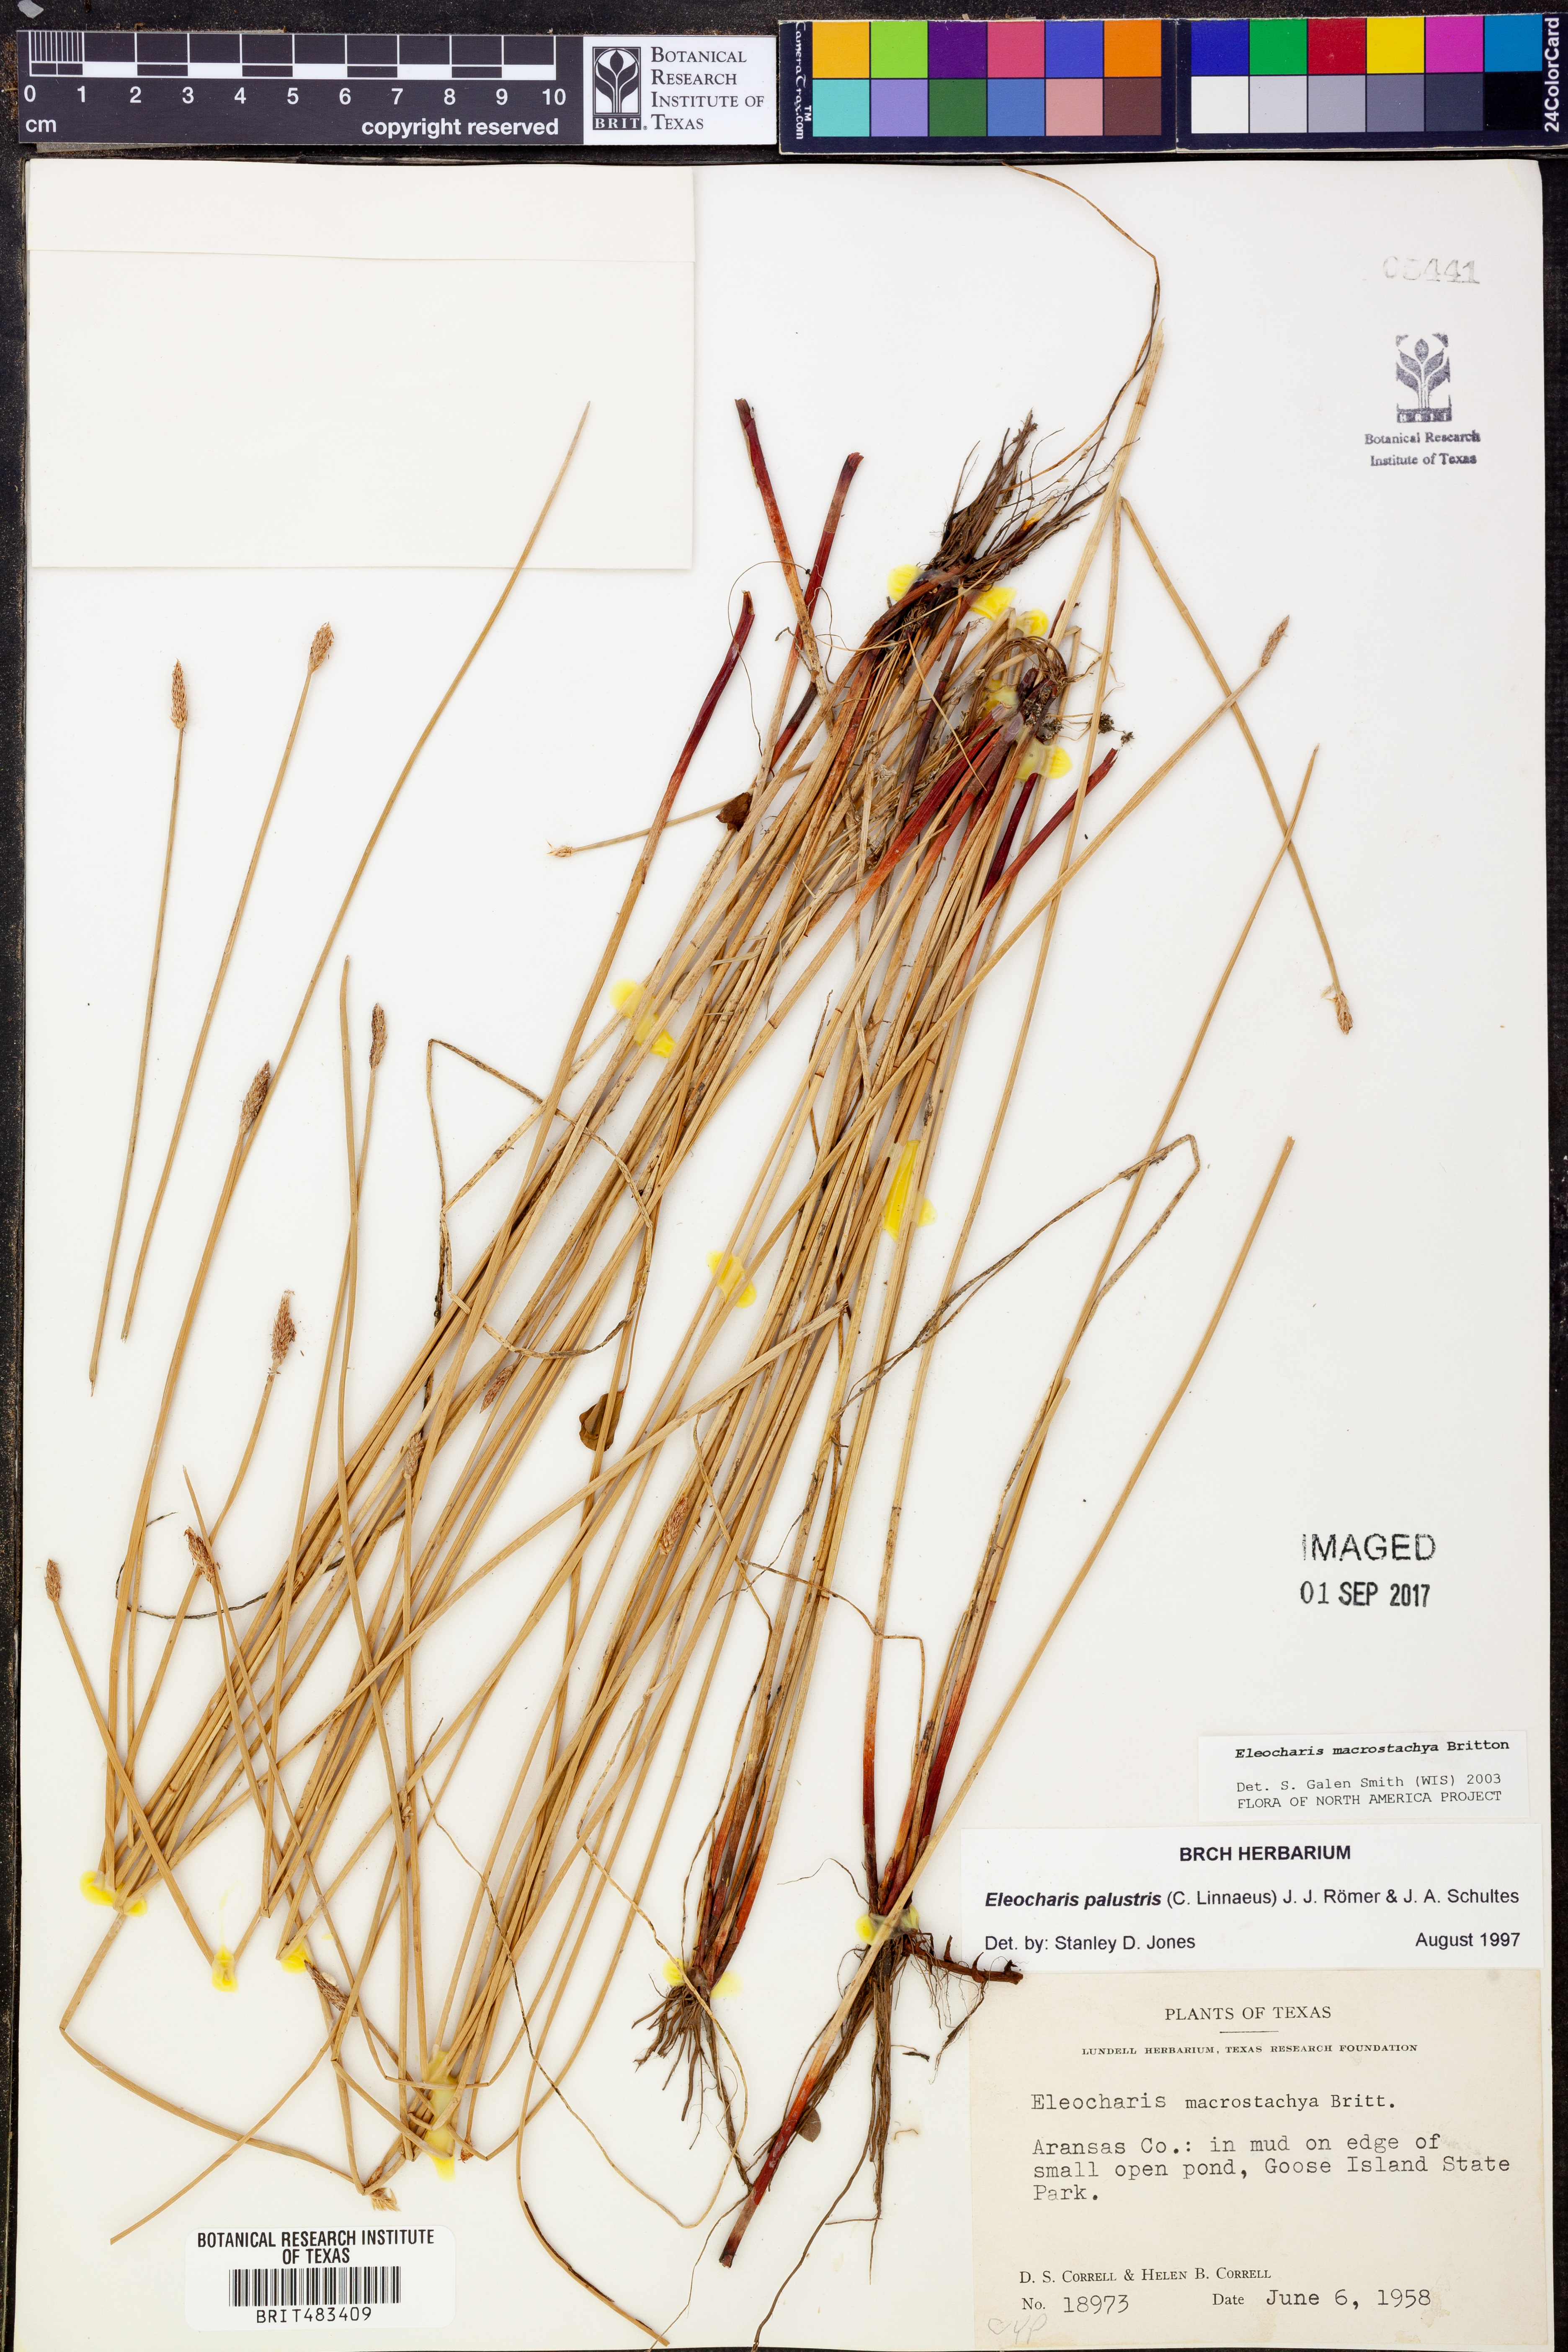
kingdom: Plantae
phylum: Tracheophyta
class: Liliopsida
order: Poales
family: Cyperaceae
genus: Eleocharis
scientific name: Eleocharis macrostachya
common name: Pale spikerush
